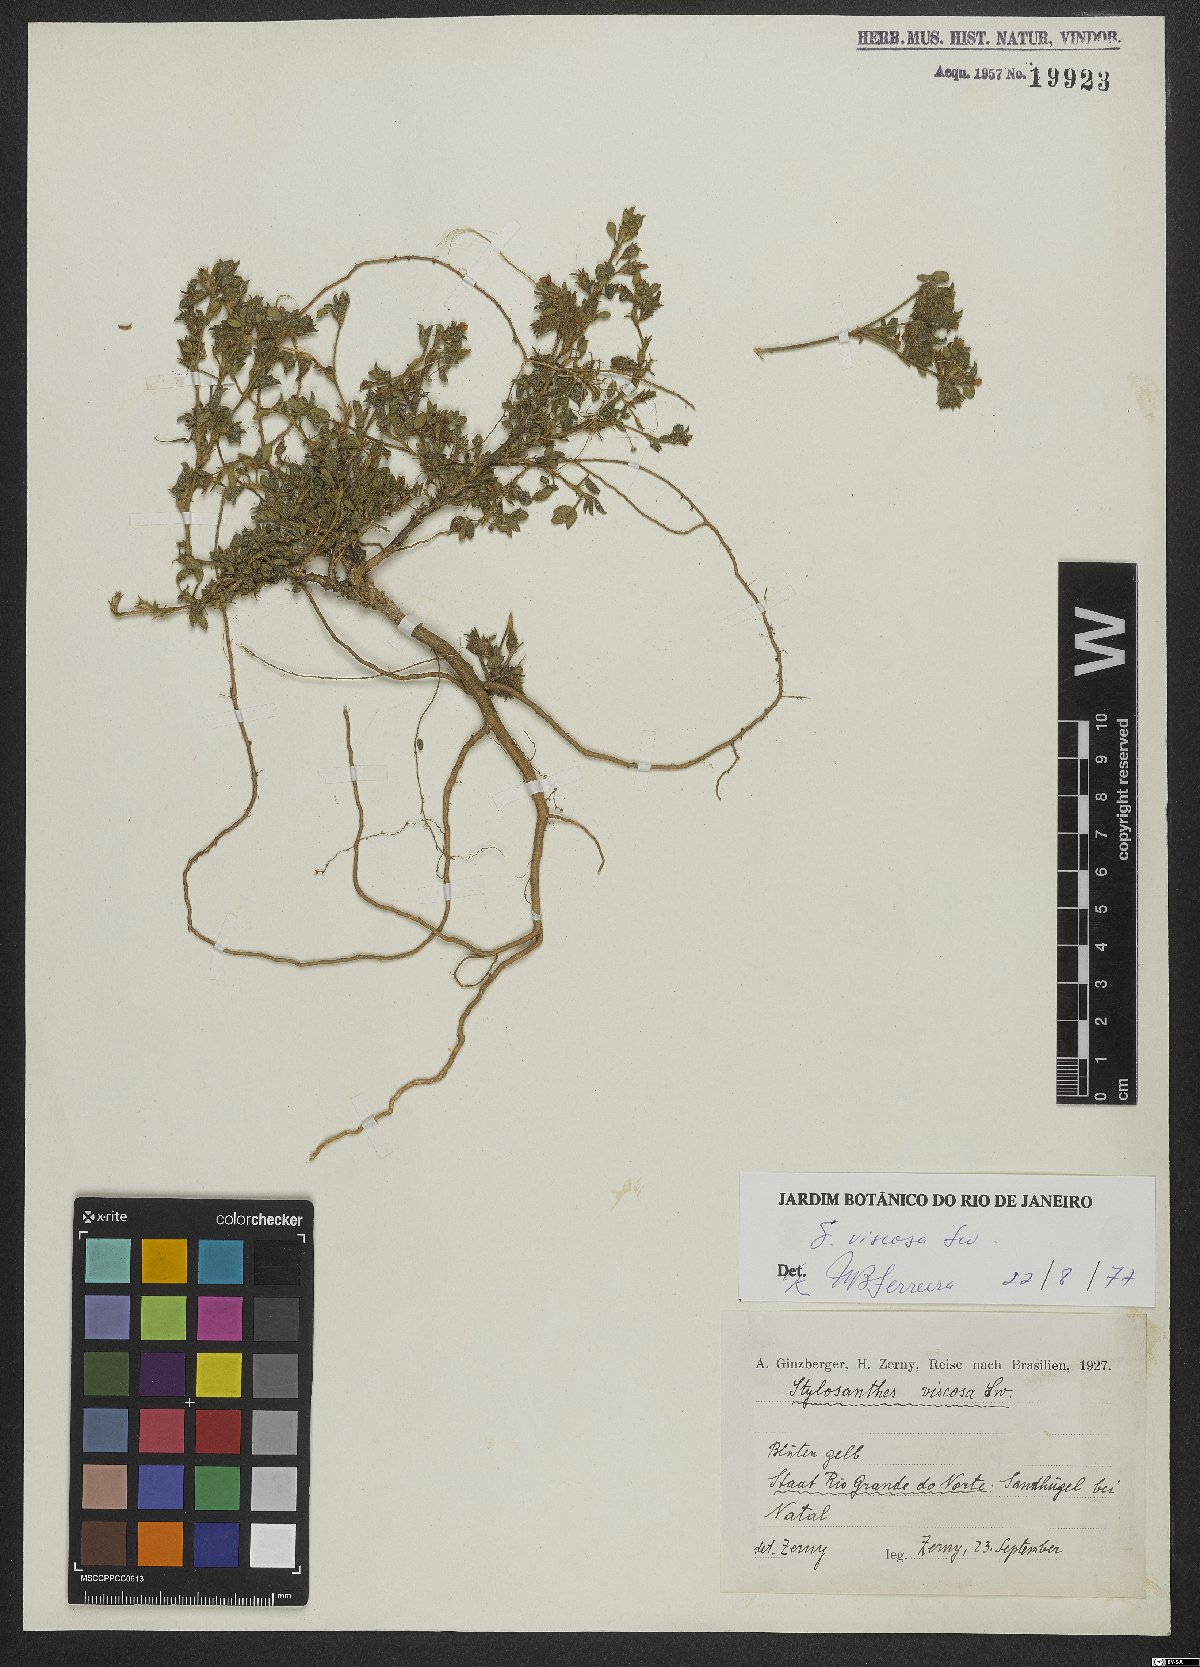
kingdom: Plantae
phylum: Tracheophyta
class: Magnoliopsida
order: Fabales
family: Fabaceae
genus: Stylosanthes
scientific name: Stylosanthes viscosa
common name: Viscid pencil-flower
